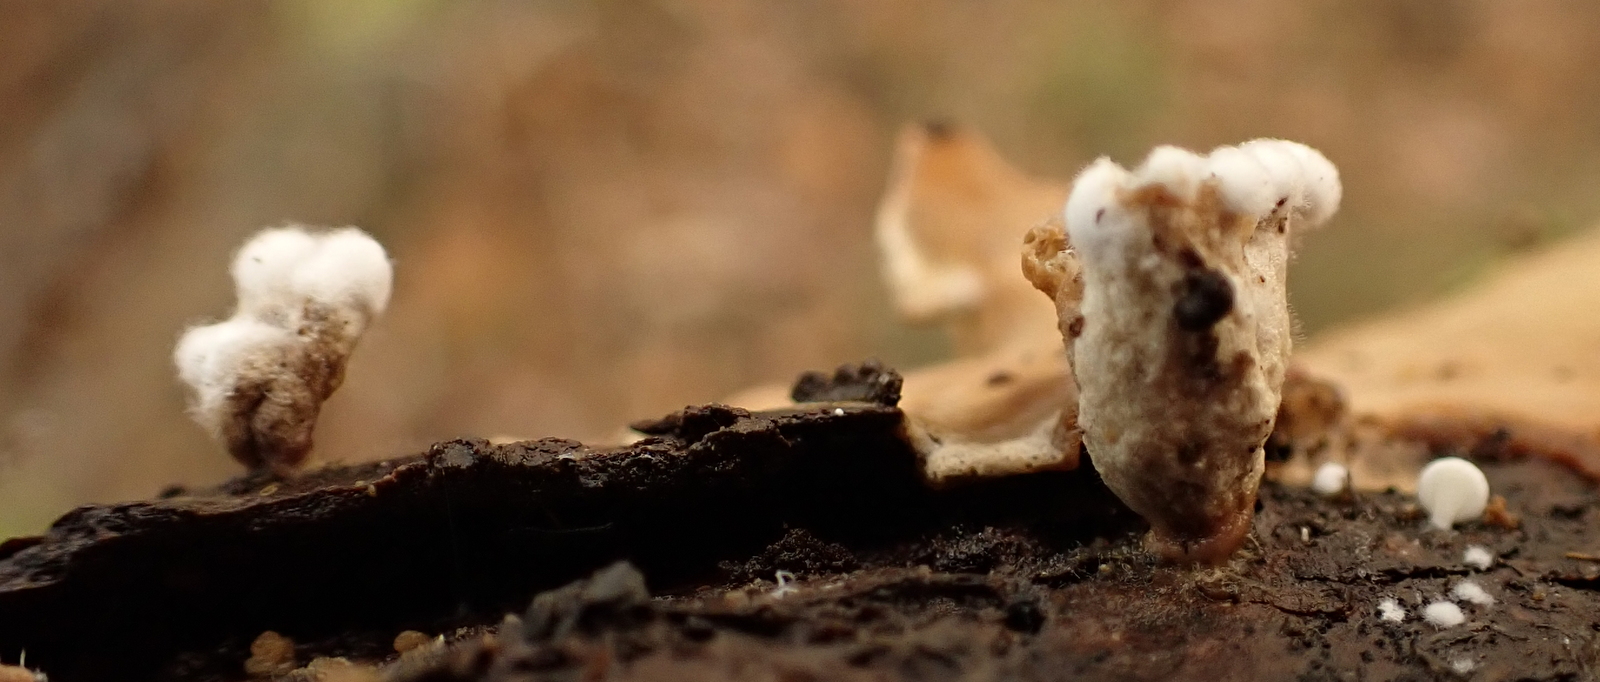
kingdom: Fungi
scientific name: Fungi
